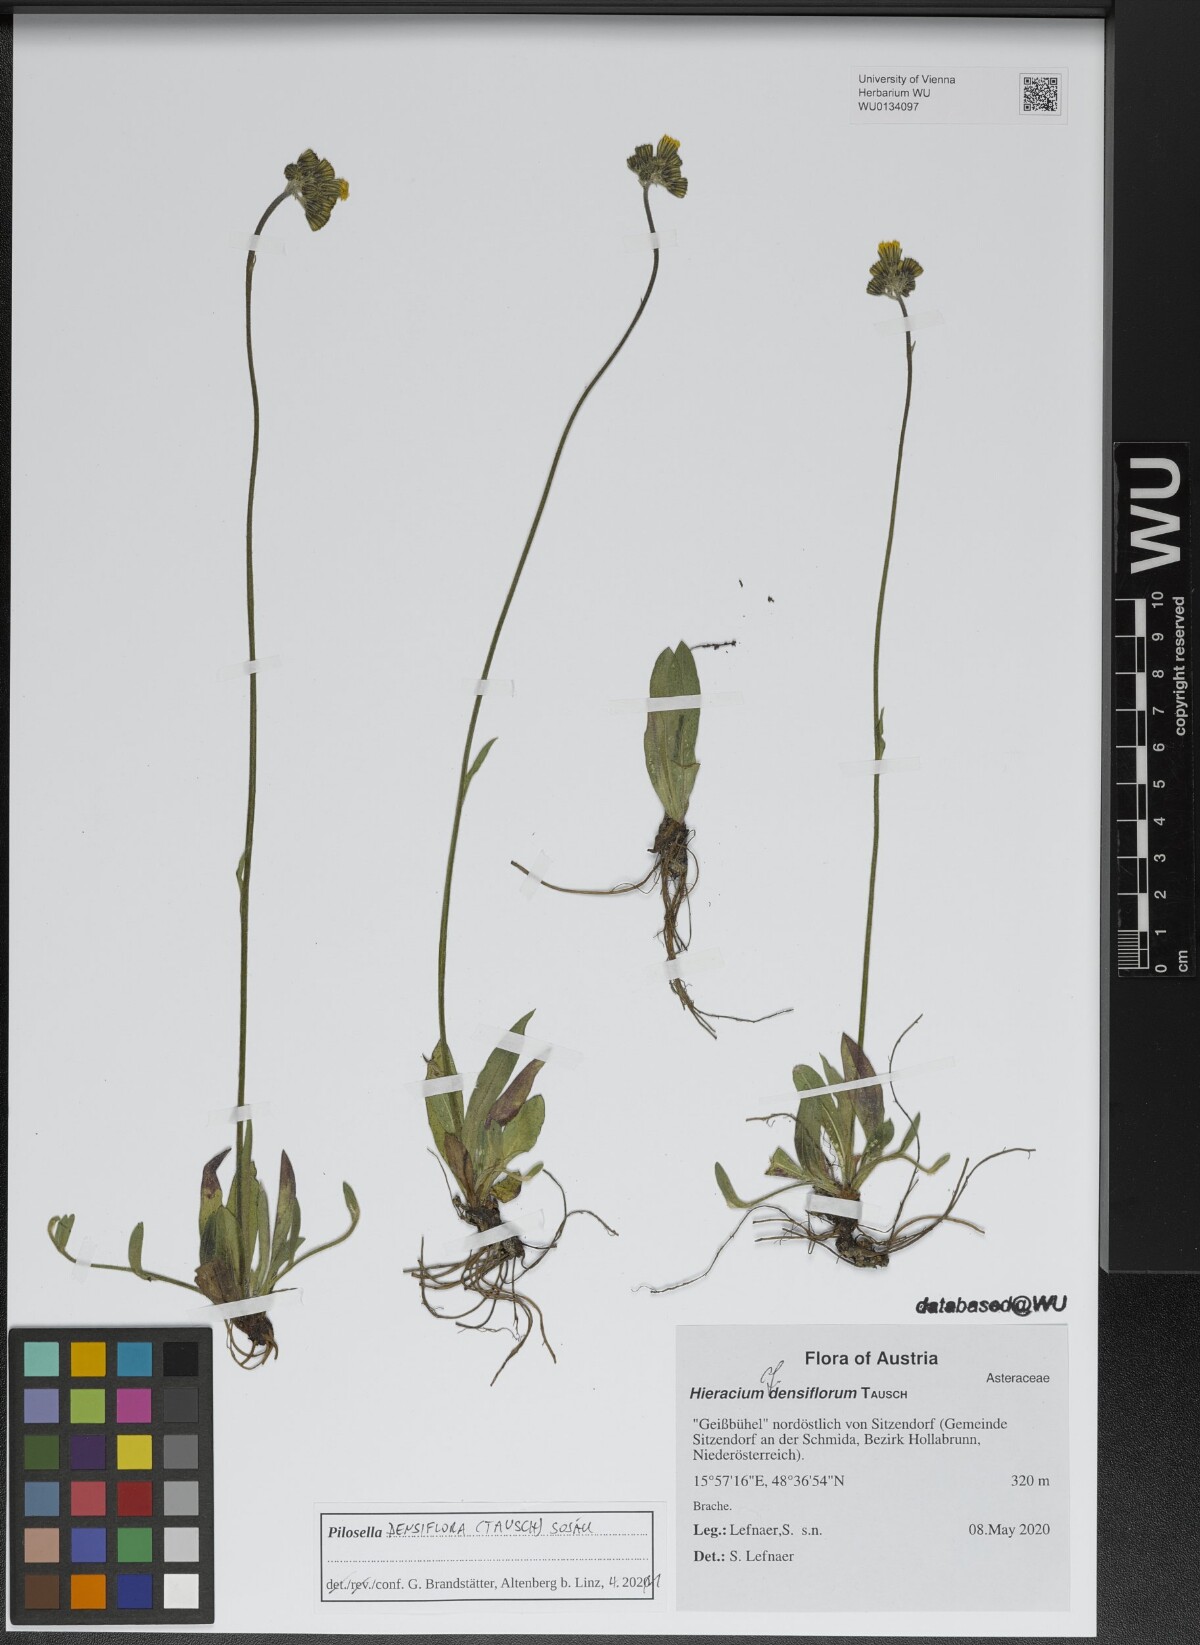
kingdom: Plantae
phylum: Tracheophyta
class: Magnoliopsida
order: Asterales
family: Asteraceae
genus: Pilosella
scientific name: Pilosella densiflora
